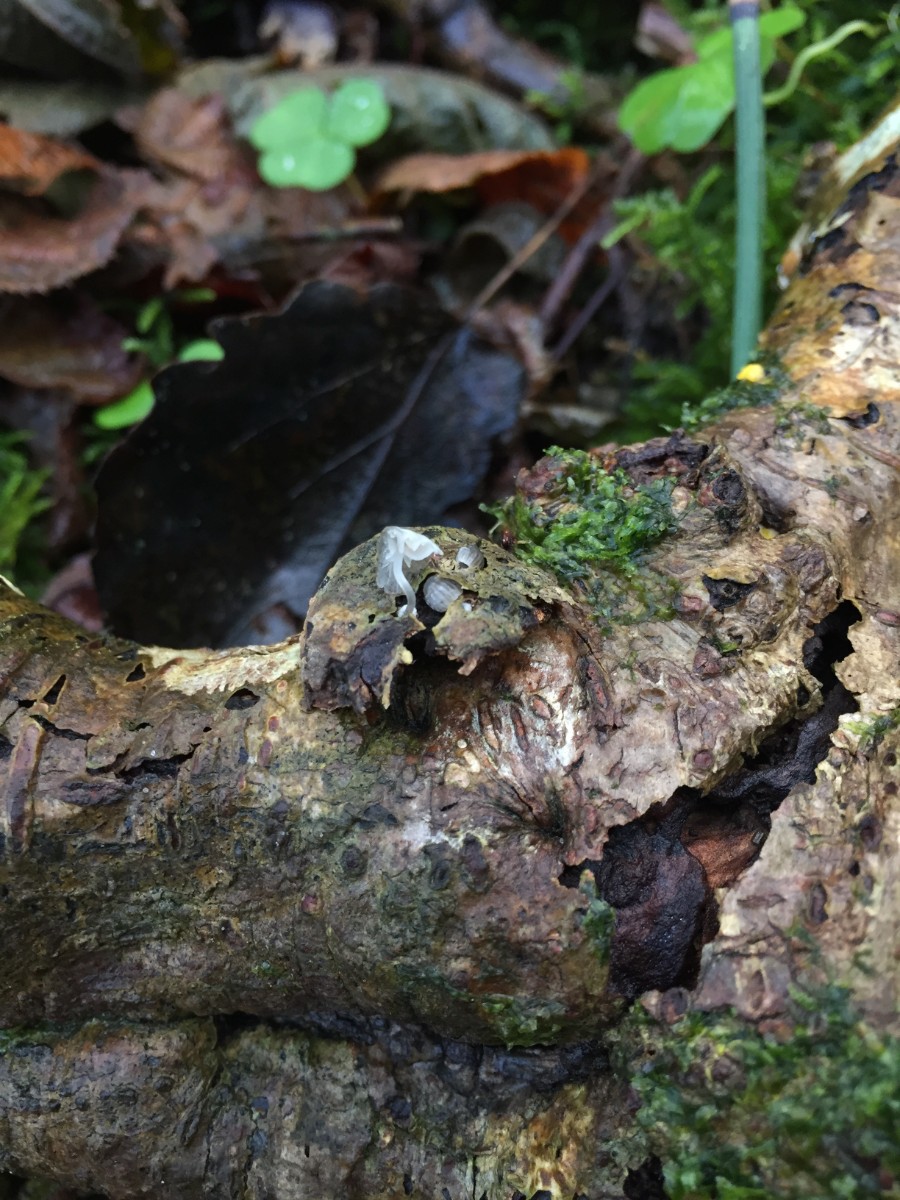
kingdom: Fungi
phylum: Basidiomycota
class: Agaricomycetes
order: Agaricales
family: Mycenaceae
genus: Mycena
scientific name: Mycena clavularis
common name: dunskivet huesvamp
